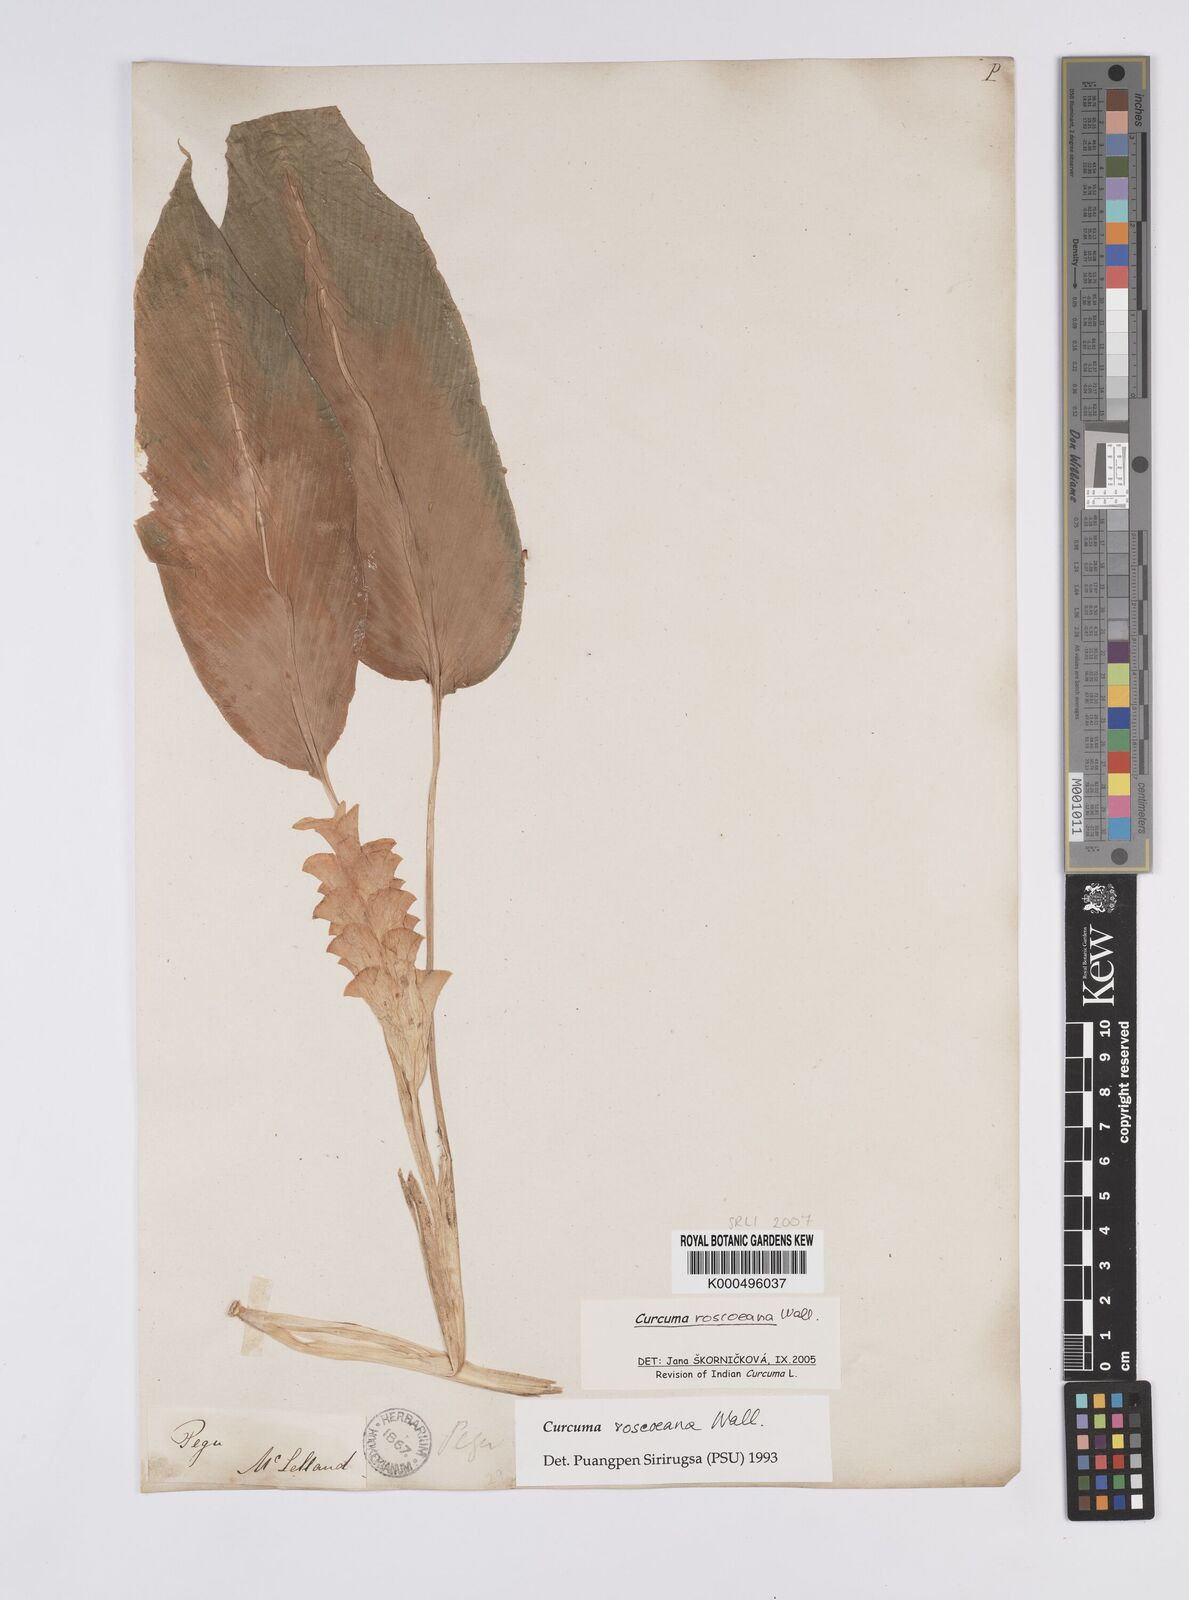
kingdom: Plantae
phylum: Tracheophyta
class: Liliopsida
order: Zingiberales
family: Zingiberaceae
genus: Curcuma
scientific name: Curcuma roscoeana
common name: Jewel of burma
